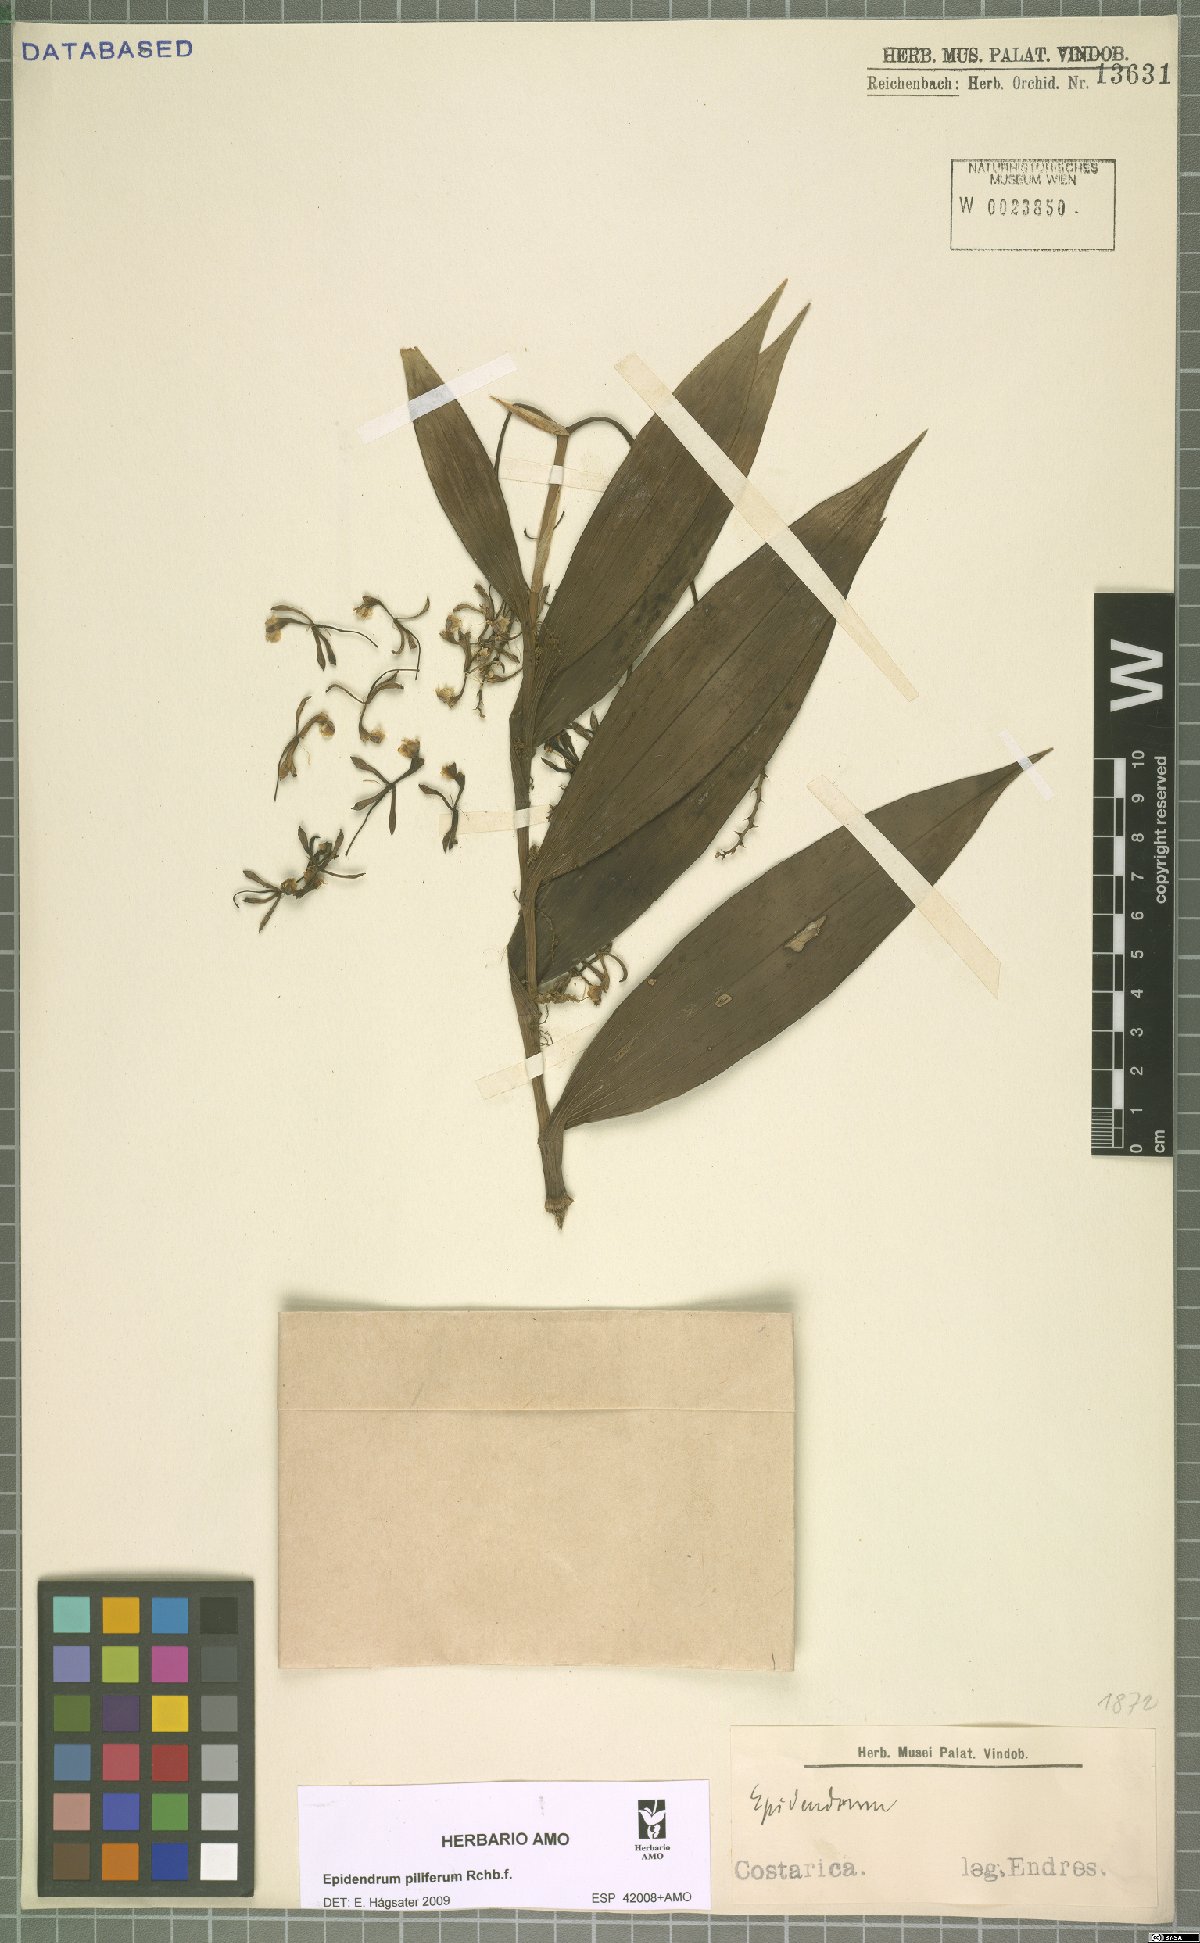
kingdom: Plantae
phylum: Tracheophyta
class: Liliopsida
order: Asparagales
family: Orchidaceae
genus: Epidendrum
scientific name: Epidendrum piliferum
